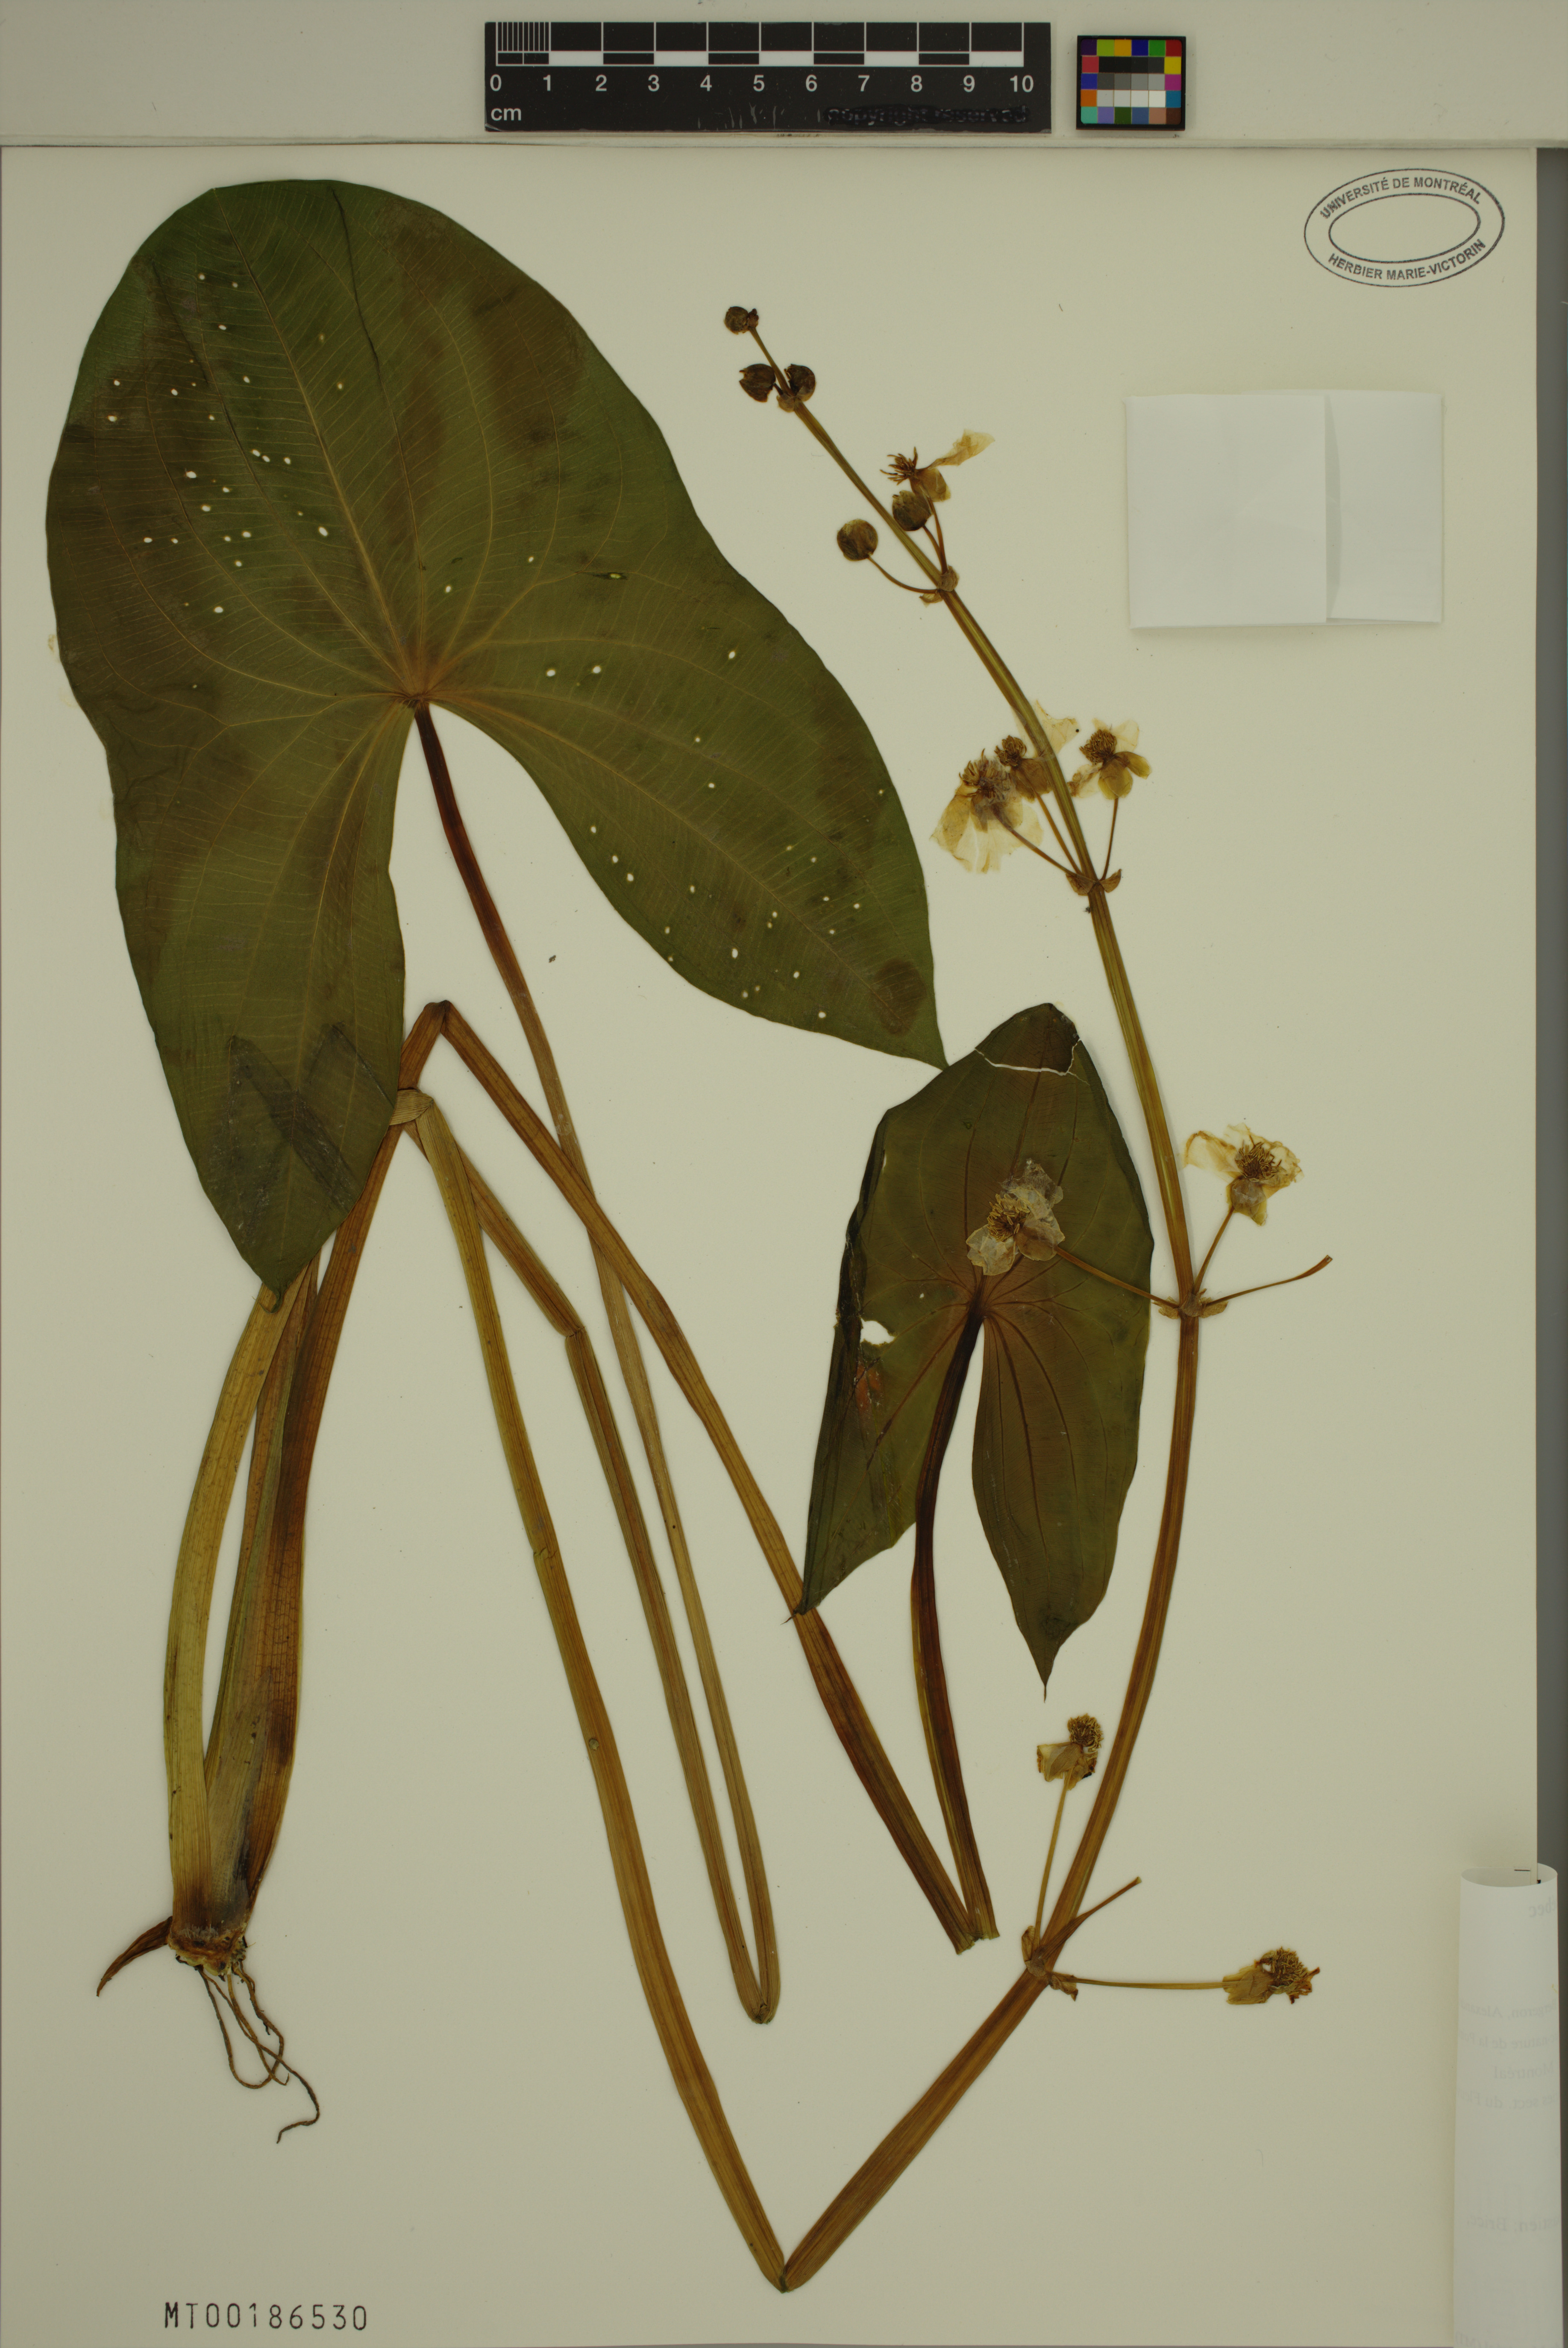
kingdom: Plantae
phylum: Tracheophyta
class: Liliopsida
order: Alismatales
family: Alismataceae
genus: Sagittaria
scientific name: Sagittaria latifolia
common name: Duck-potato
